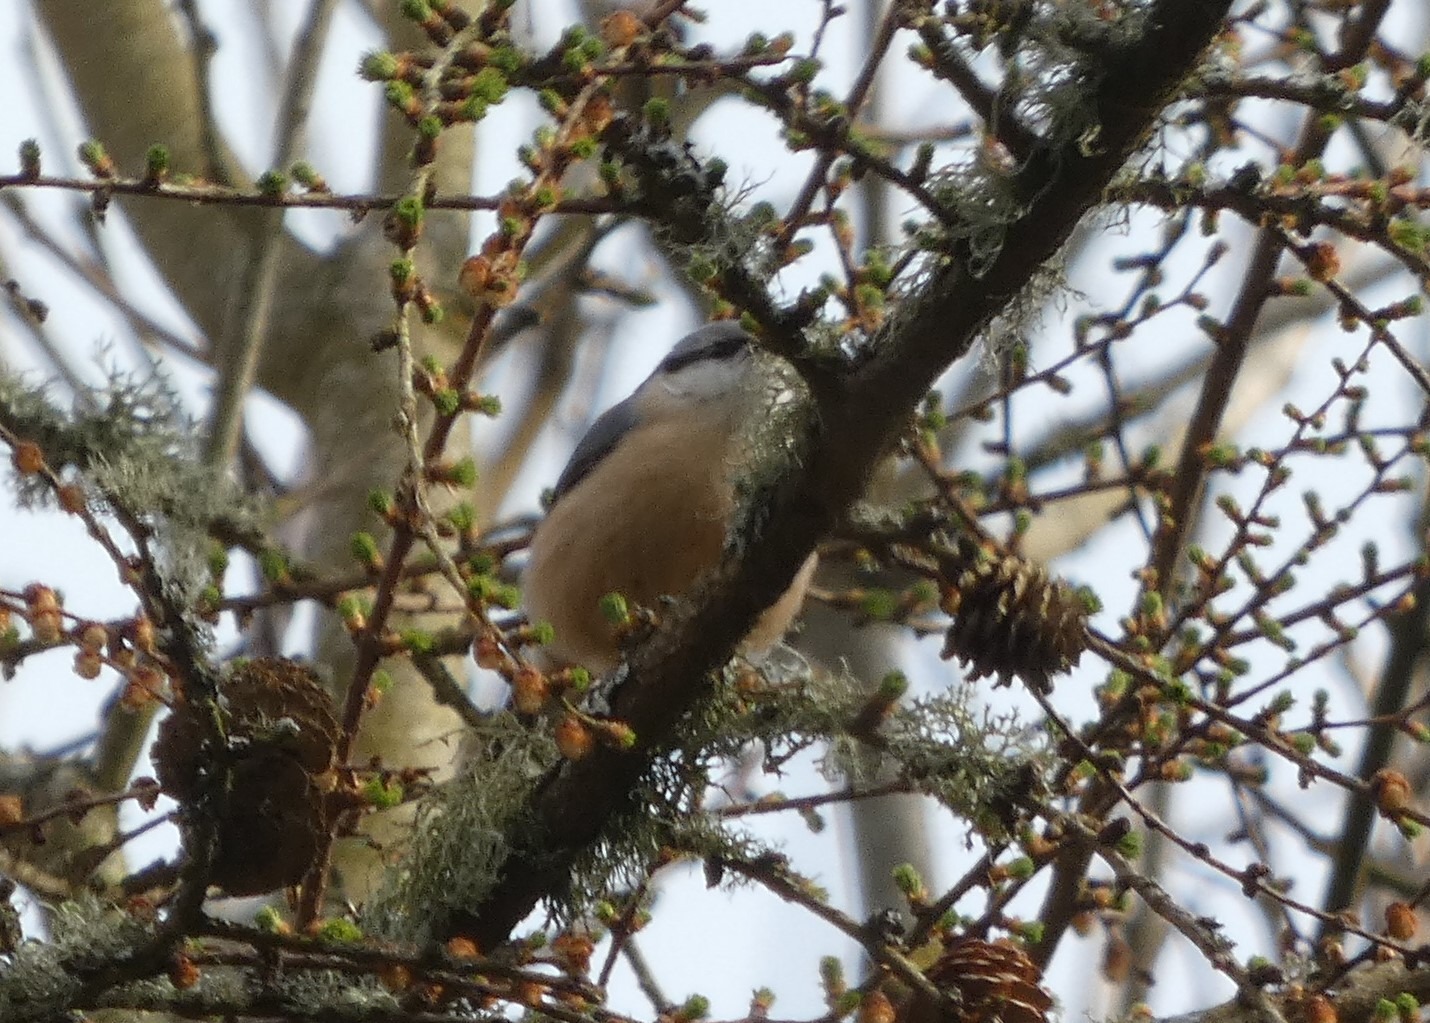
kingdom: Animalia
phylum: Chordata
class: Aves
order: Passeriformes
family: Sittidae
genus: Sitta
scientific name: Sitta europaea
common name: Spætmejse
